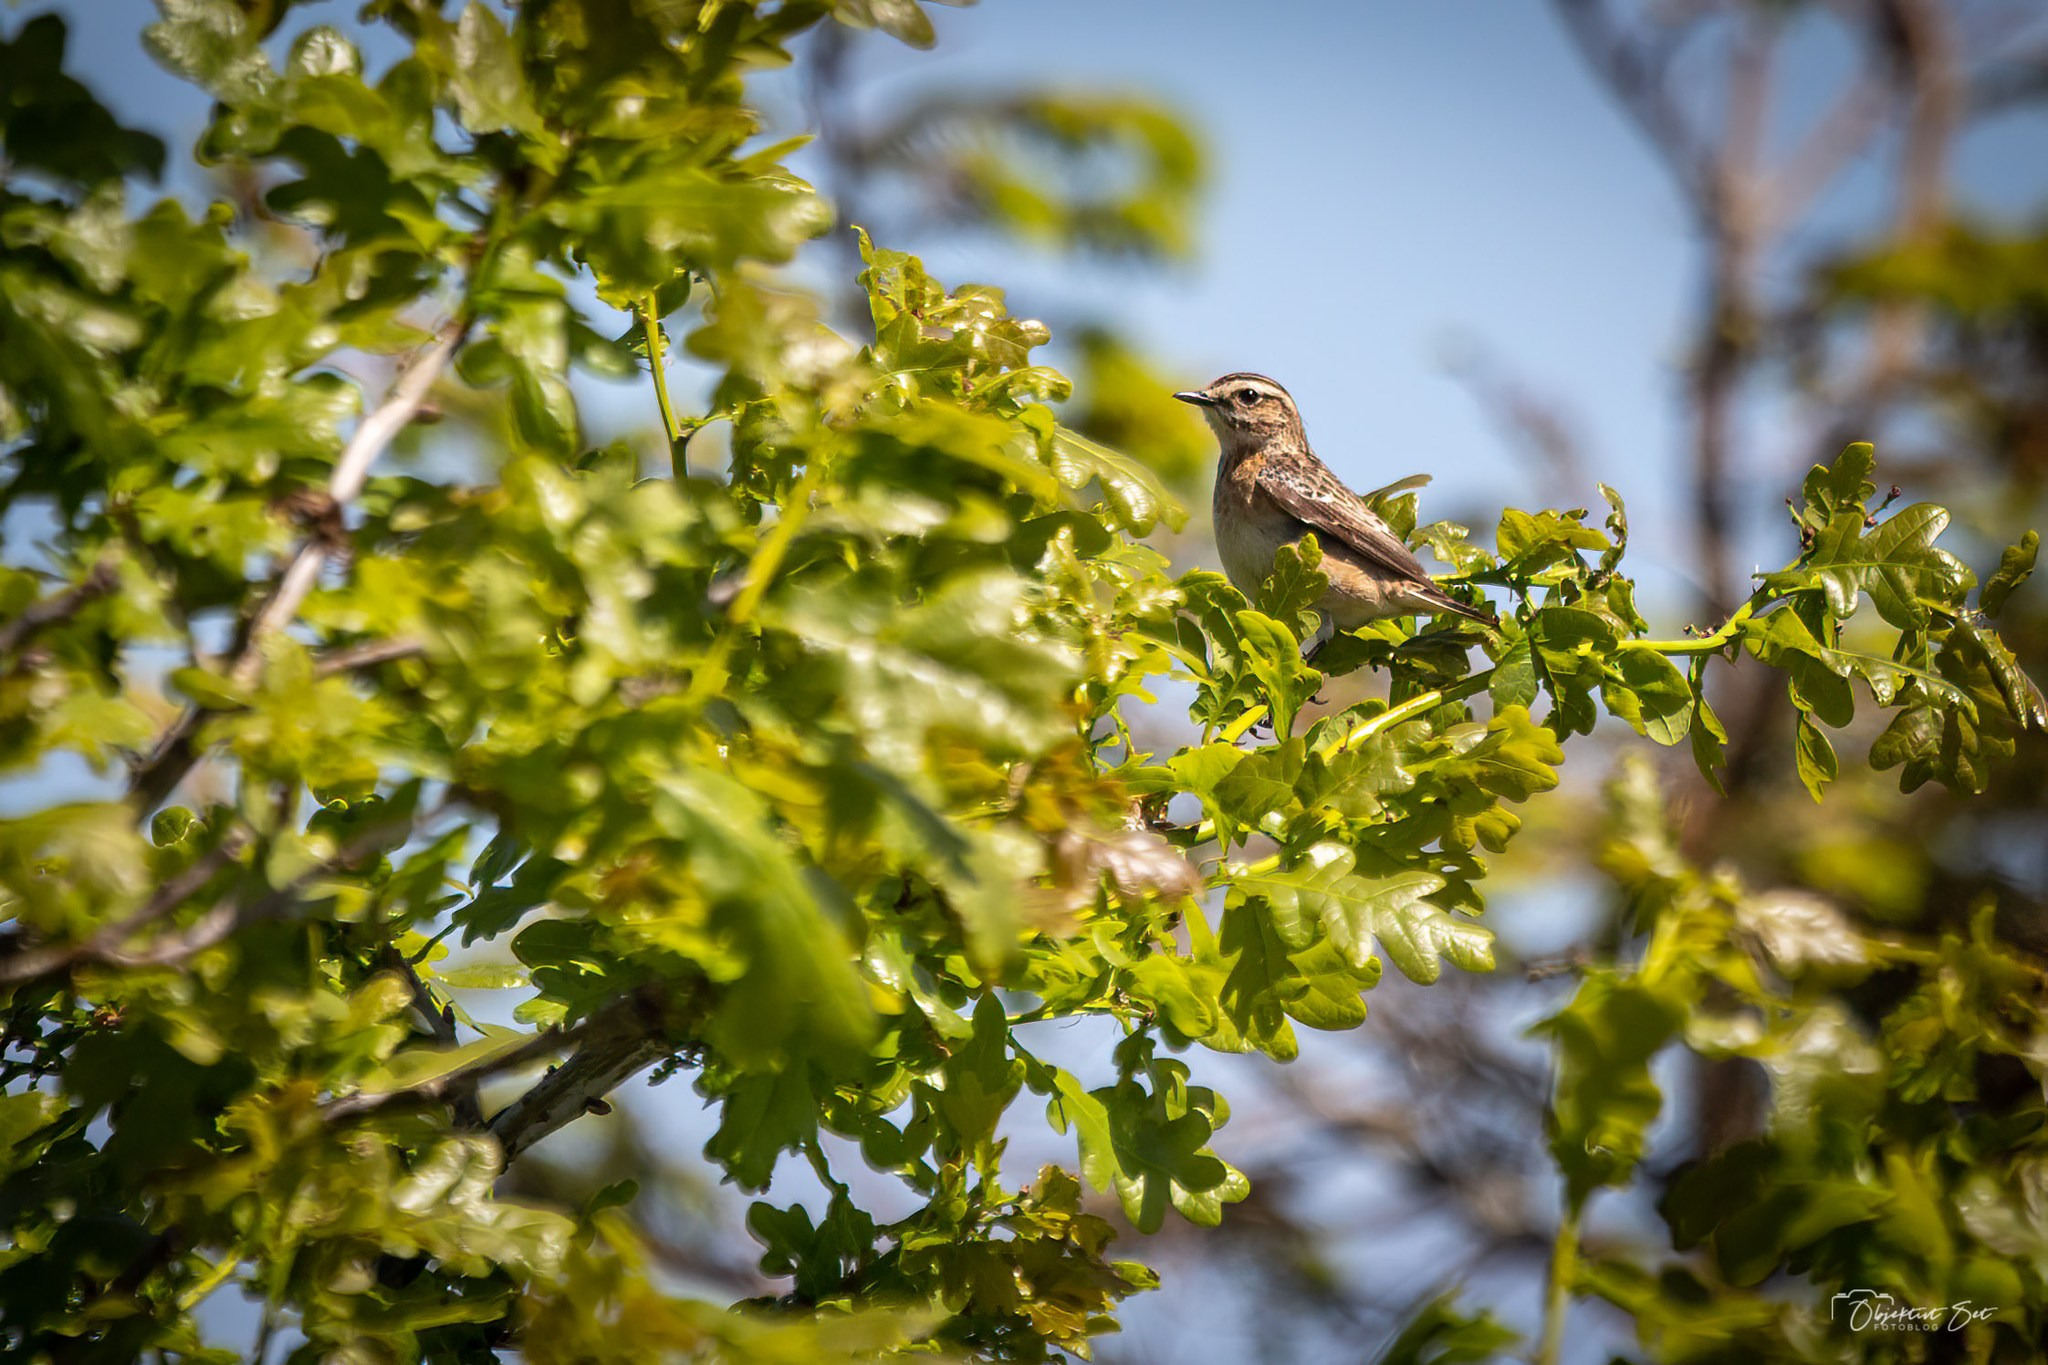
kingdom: Animalia
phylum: Chordata
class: Aves
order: Passeriformes
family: Muscicapidae
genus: Saxicola
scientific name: Saxicola rubetra
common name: Bynkefugl
